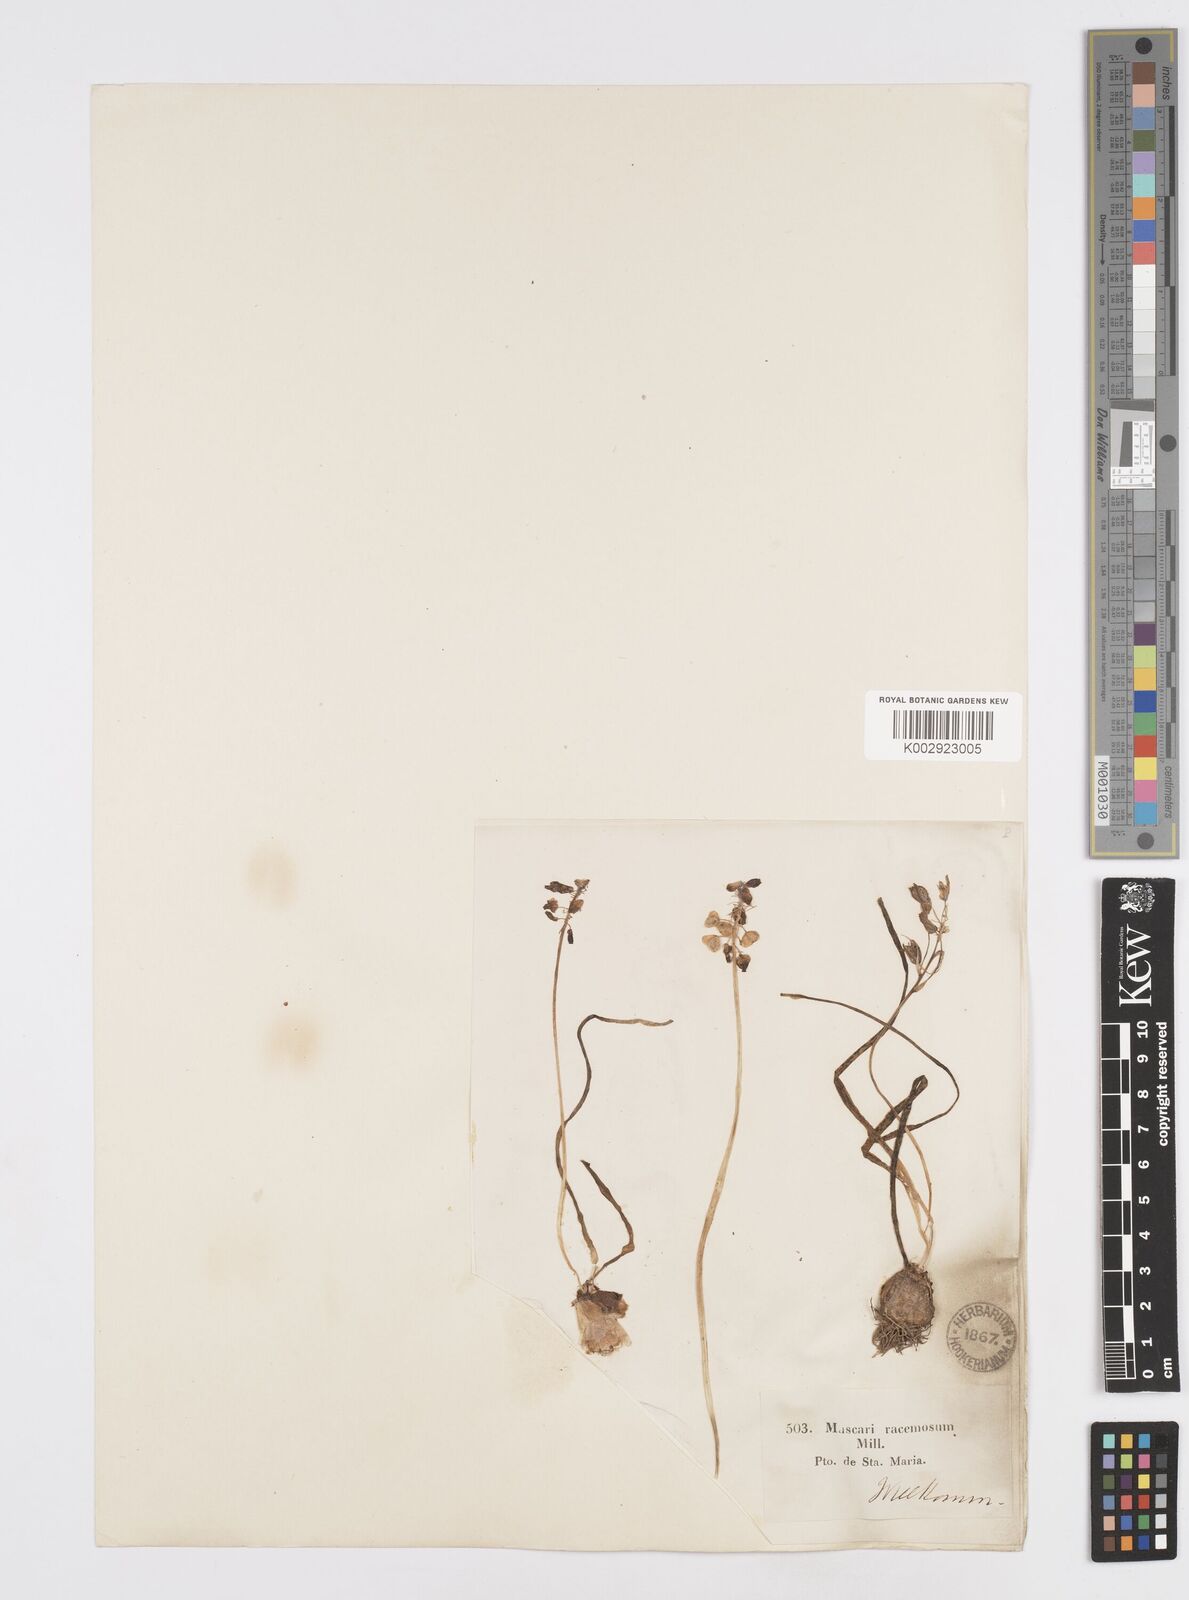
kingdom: Plantae
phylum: Tracheophyta
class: Liliopsida
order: Asparagales
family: Asparagaceae
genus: Muscarimia
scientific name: Muscarimia muscari
